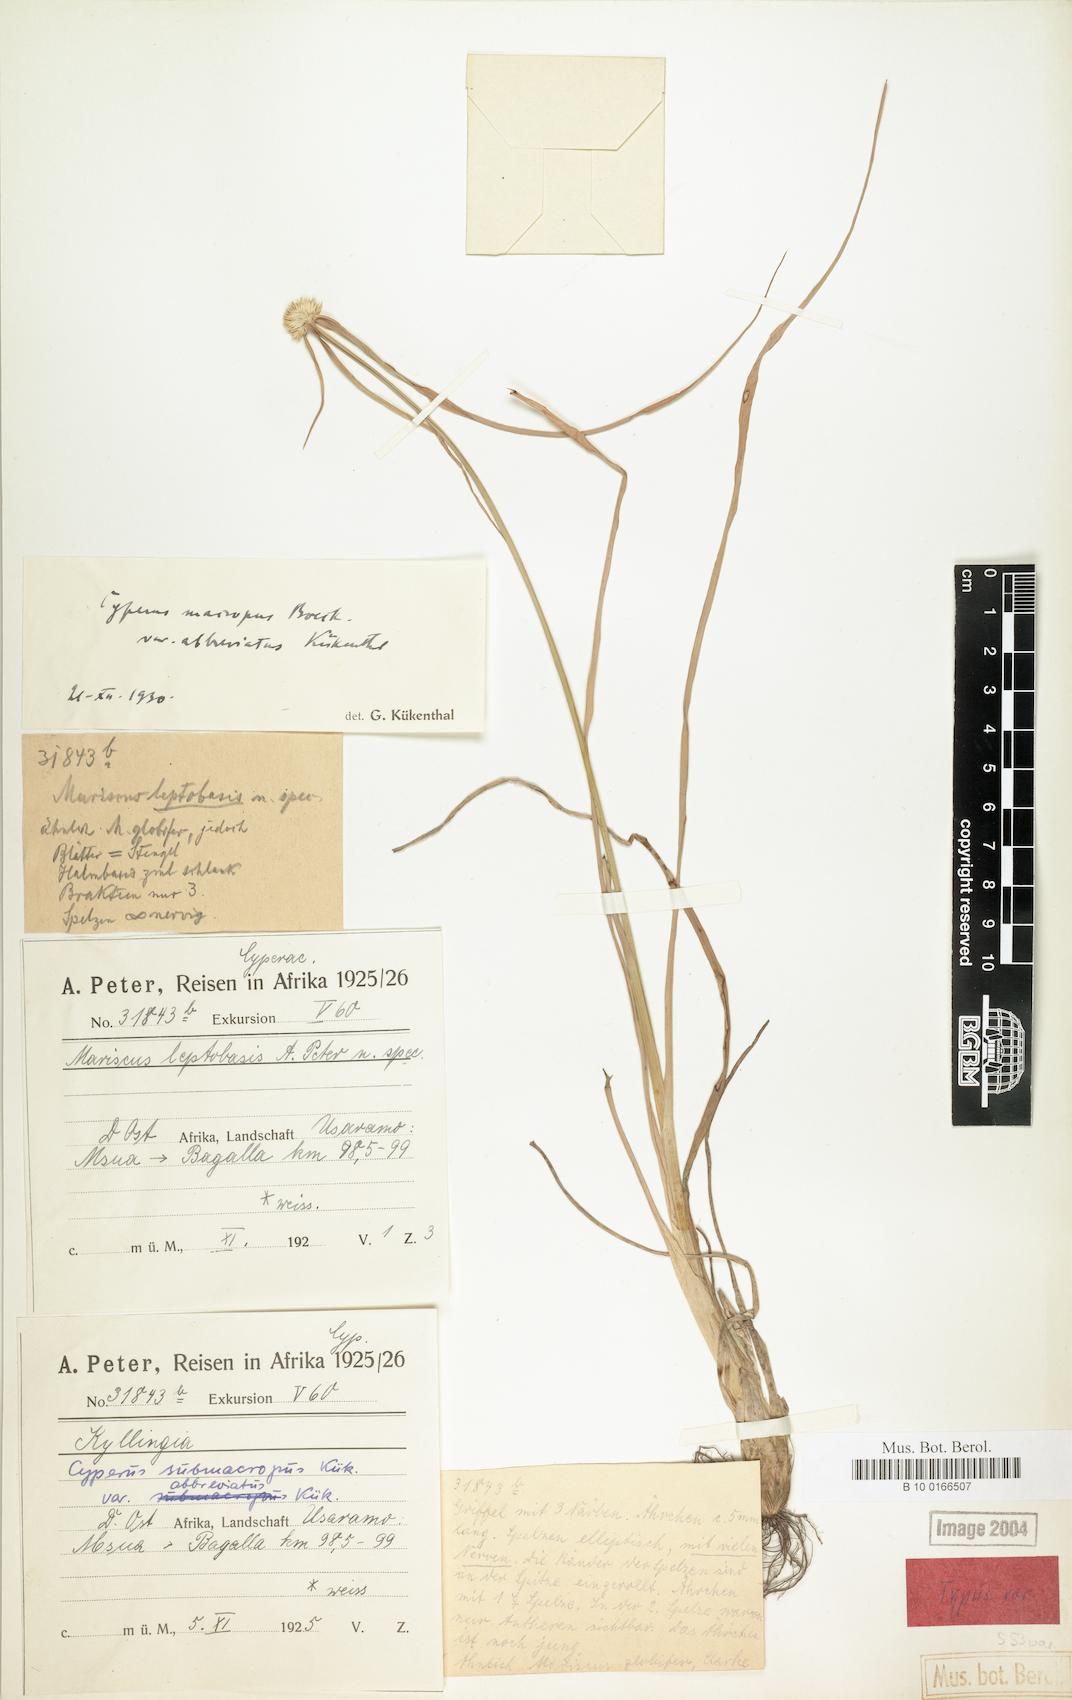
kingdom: Plantae
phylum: Tracheophyta
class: Liliopsida
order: Poales
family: Cyperaceae
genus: Cyperus
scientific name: Cyperus mollipes
